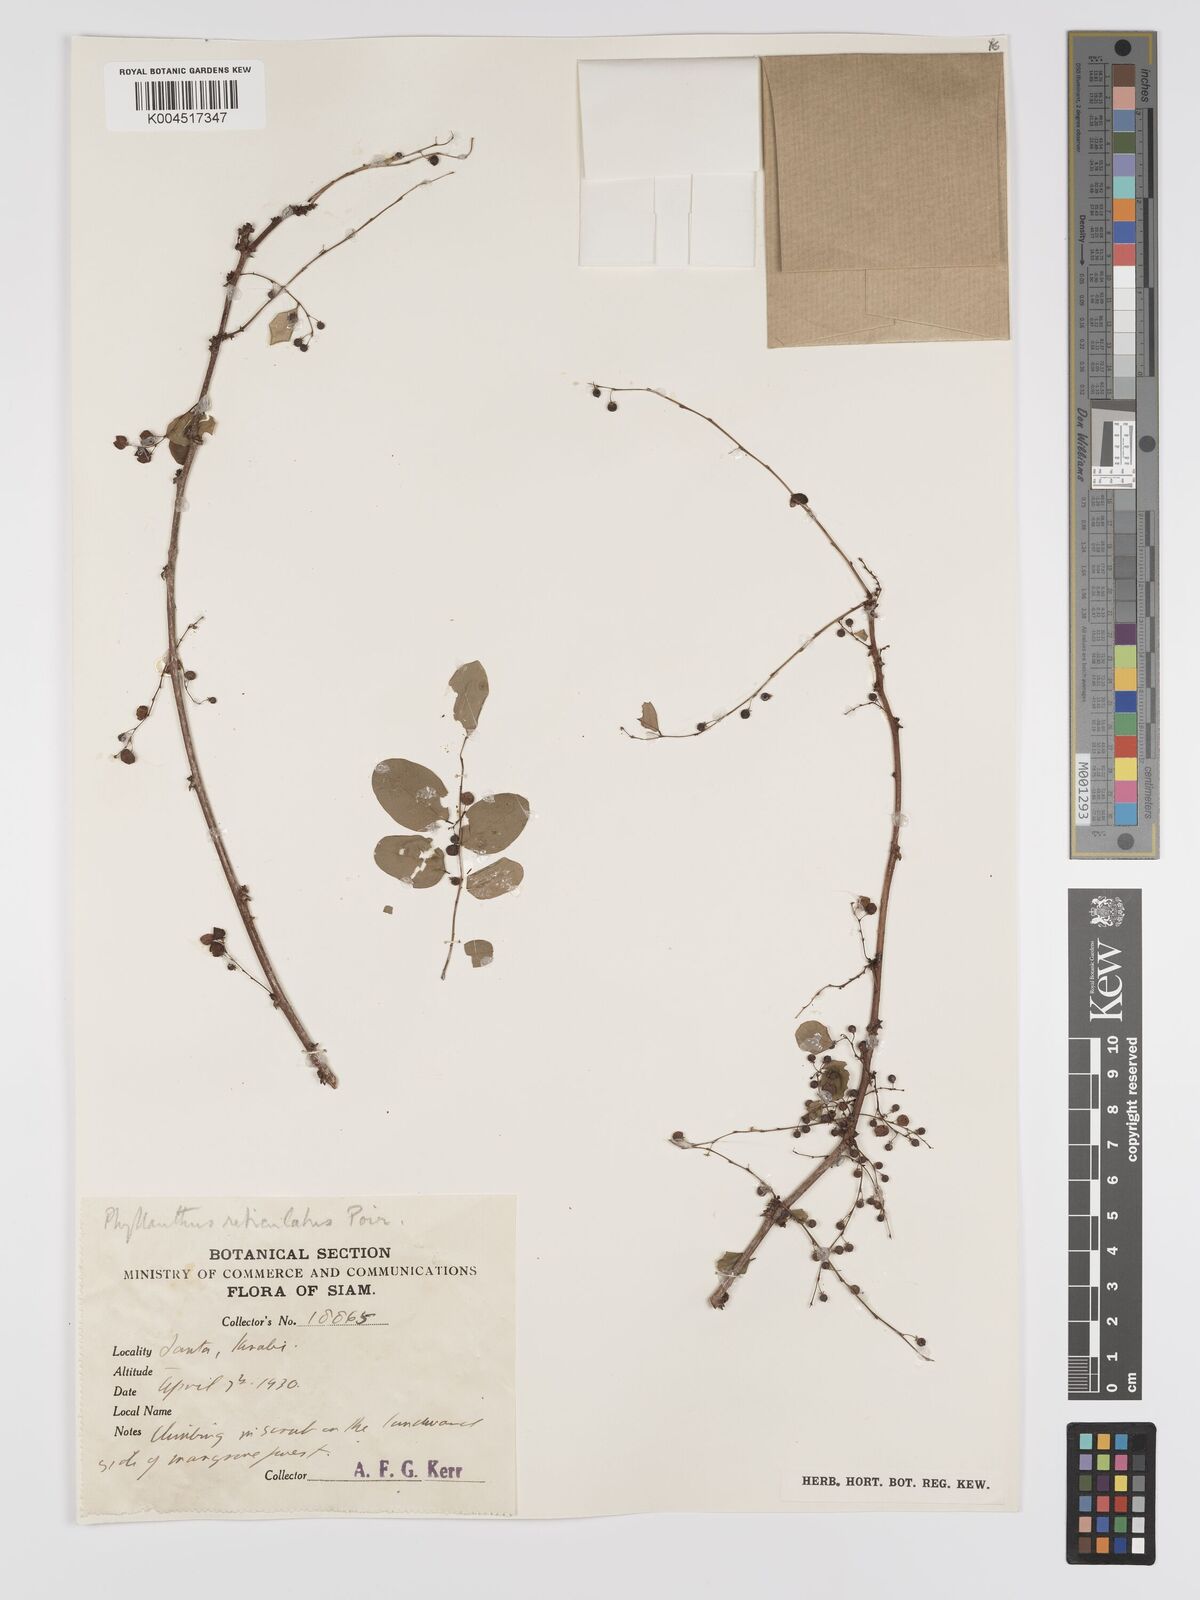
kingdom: Plantae
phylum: Tracheophyta
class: Magnoliopsida
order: Malpighiales
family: Phyllanthaceae
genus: Phyllanthus
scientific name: Phyllanthus reticulatus
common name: Potato bush
